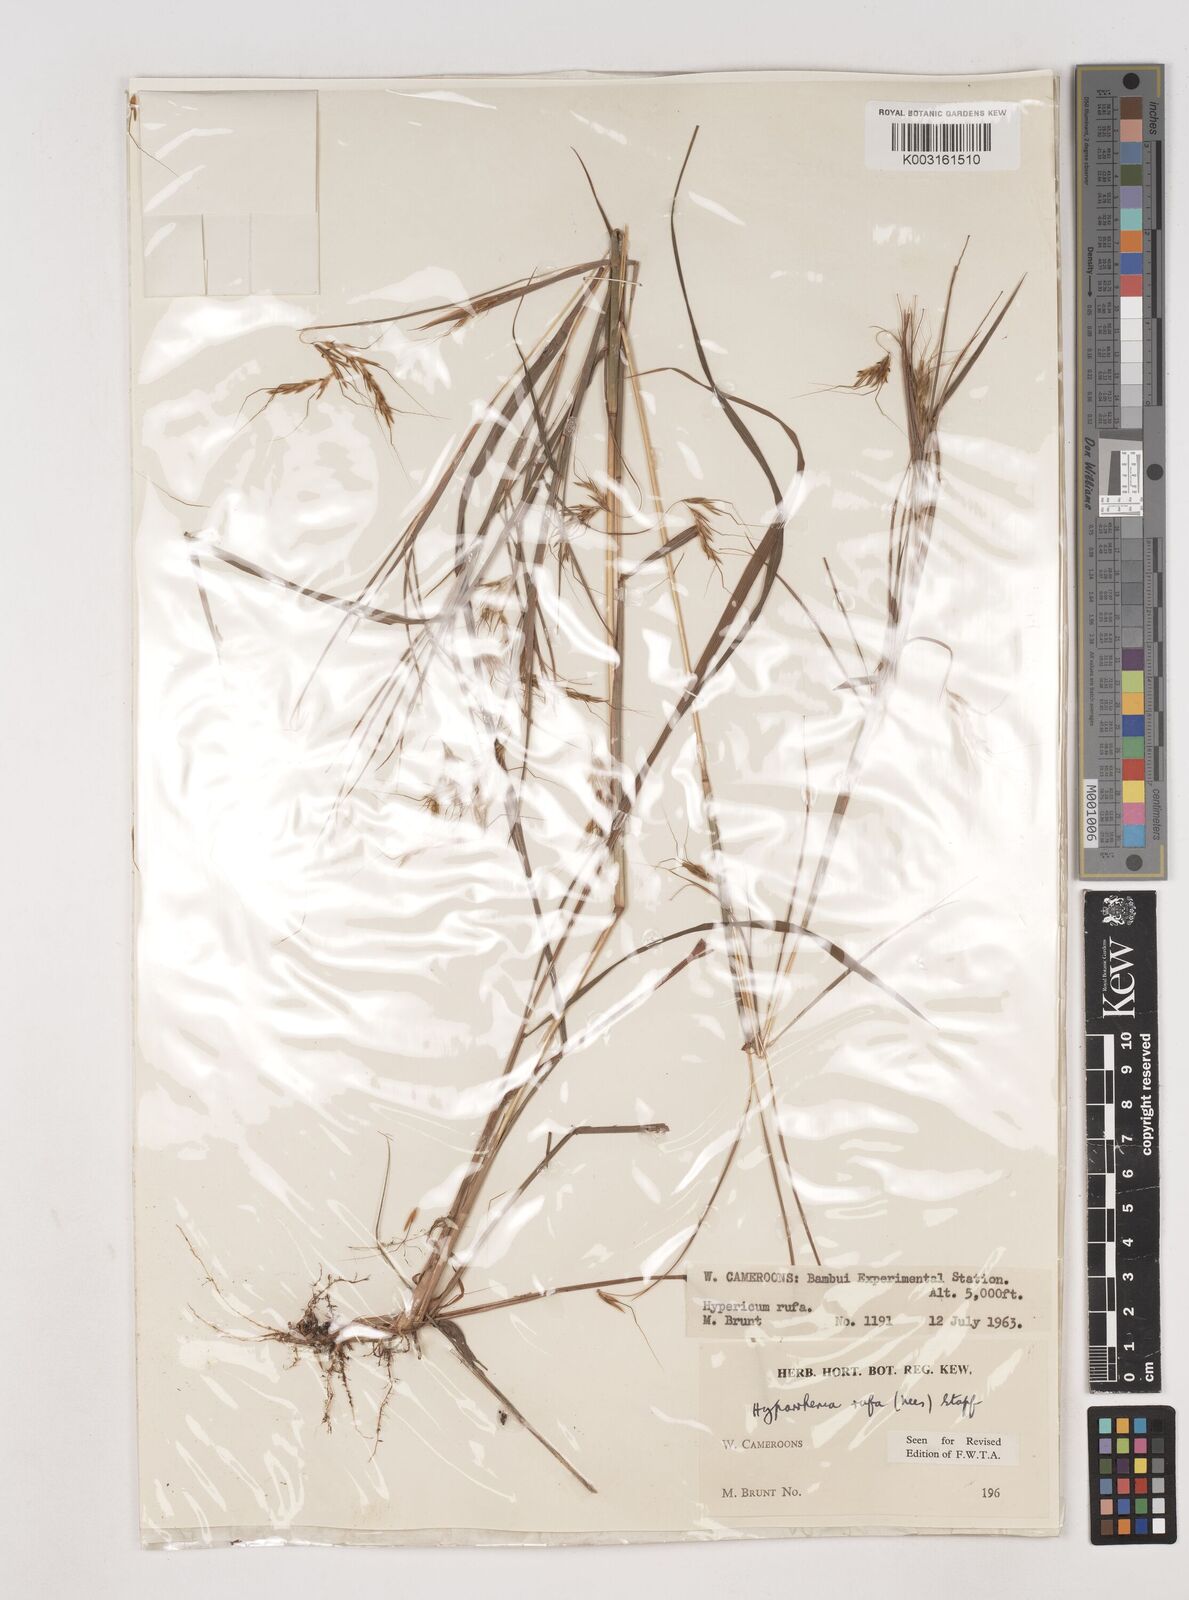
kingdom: Plantae
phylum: Tracheophyta
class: Liliopsida
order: Poales
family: Poaceae
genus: Hyparrhenia
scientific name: Hyparrhenia rufa
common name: Jaraguagrass
